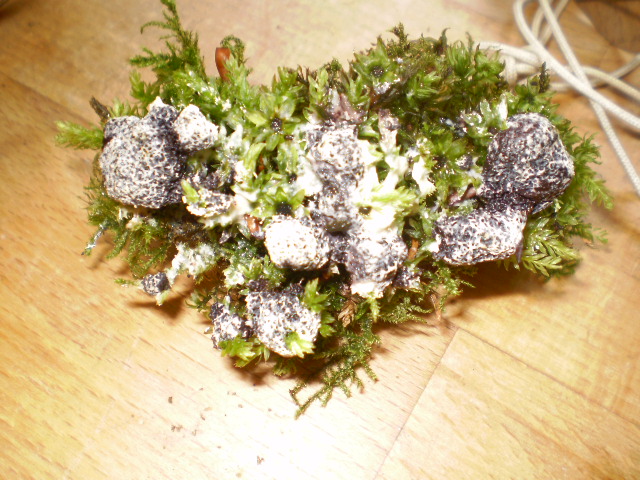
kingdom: Protozoa
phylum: Mycetozoa
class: Myxomycetes
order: Physarales
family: Physaraceae
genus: Fuligo
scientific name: Fuligo septica
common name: gul troldsmør
